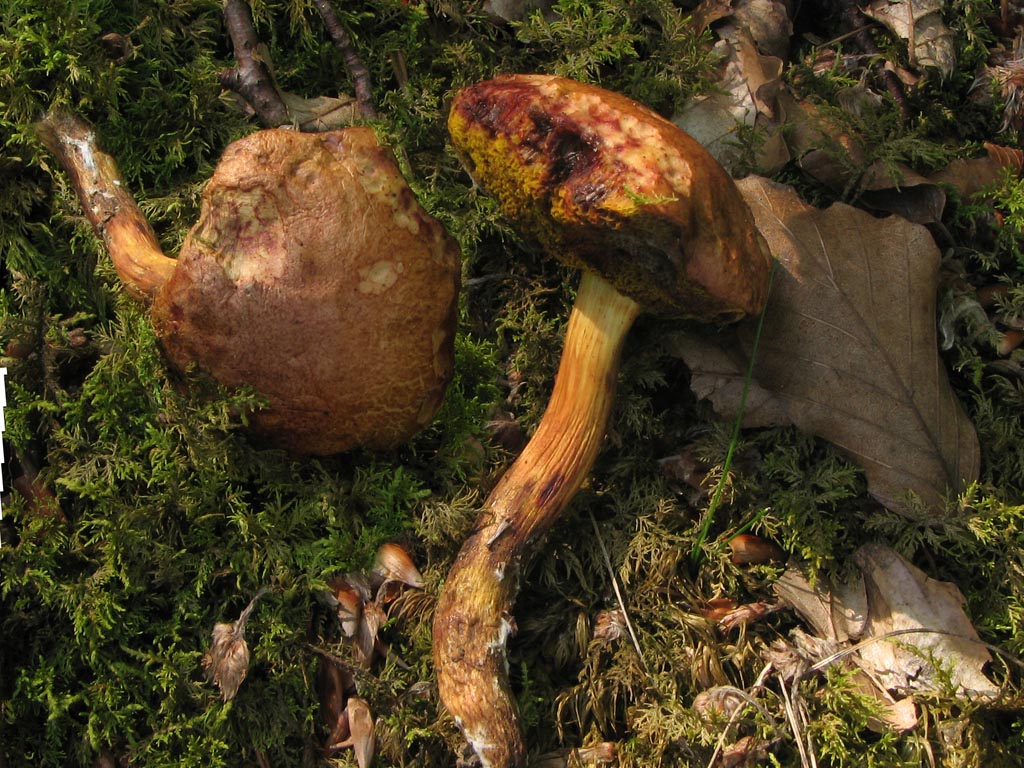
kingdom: Fungi
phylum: Basidiomycota
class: Agaricomycetes
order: Boletales
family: Boletaceae
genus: Aureoboletus
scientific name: Aureoboletus gentilis
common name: guldrørhat
